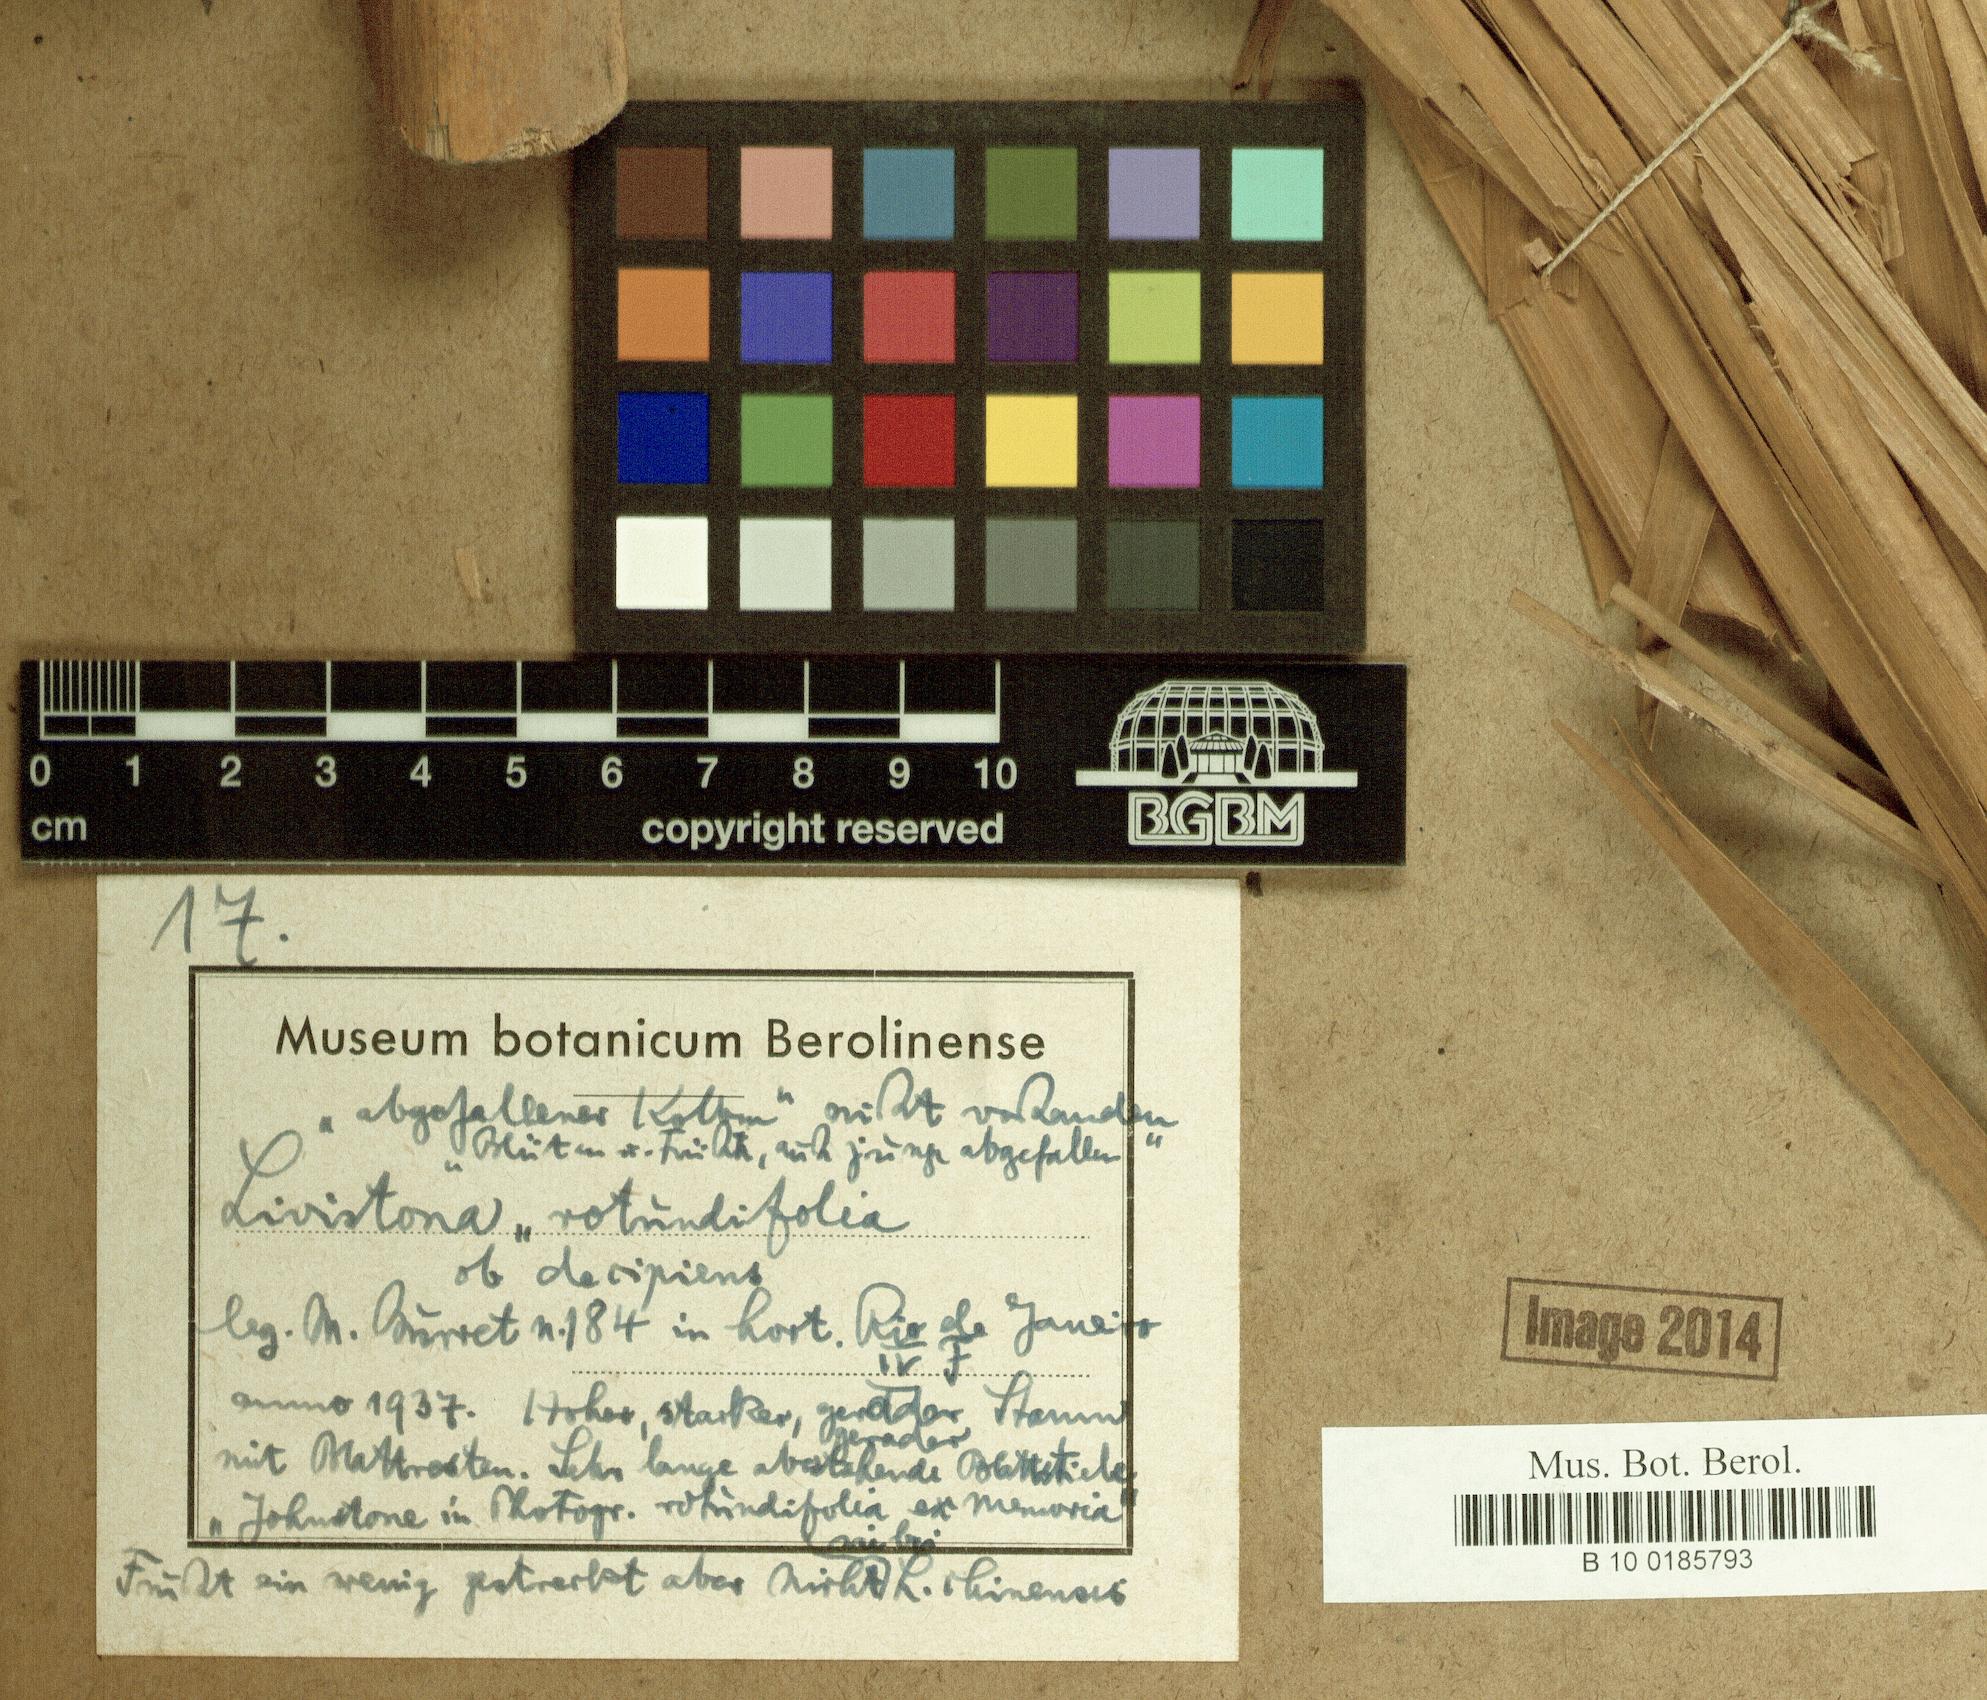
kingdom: Plantae
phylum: Tracheophyta
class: Liliopsida
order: Arecales
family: Arecaceae
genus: Saribus
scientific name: Saribus rotundifolius
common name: Palm
